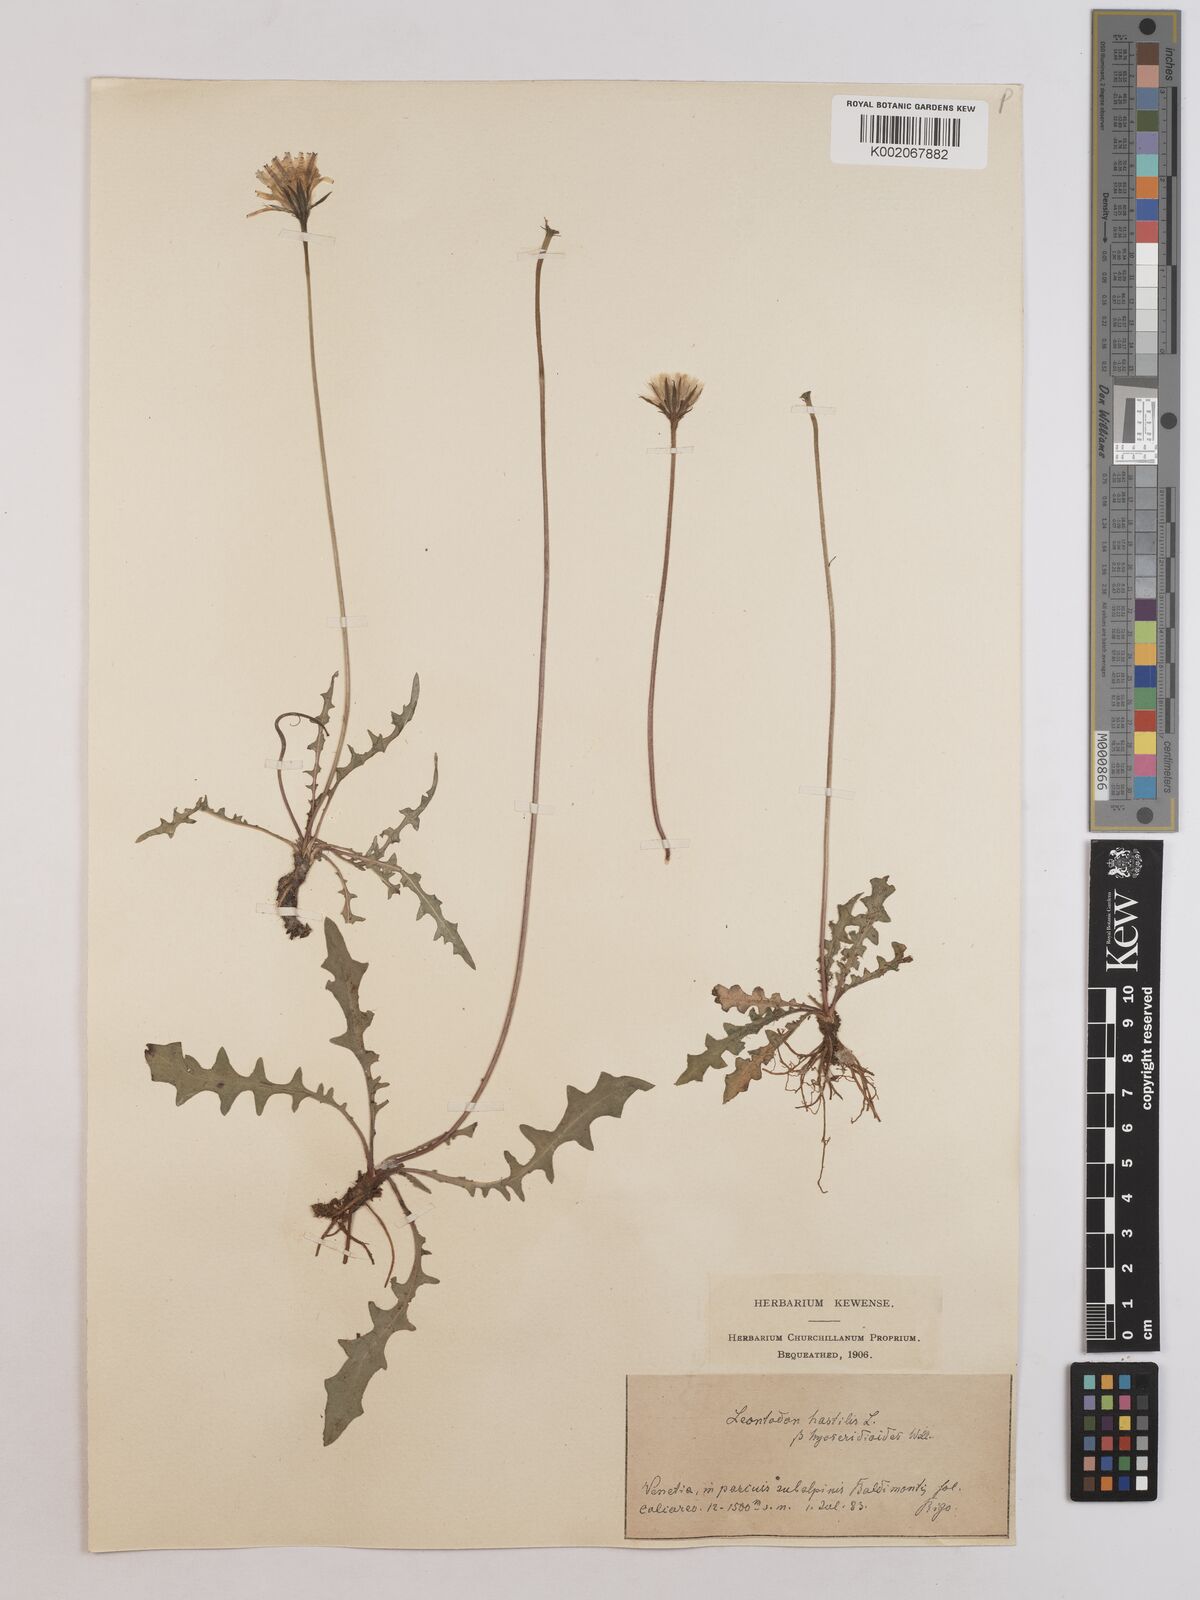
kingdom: Plantae
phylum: Tracheophyta
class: Magnoliopsida
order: Asterales
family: Asteraceae
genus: Leontodon
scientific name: Leontodon hispidus
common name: Rough hawkbit
